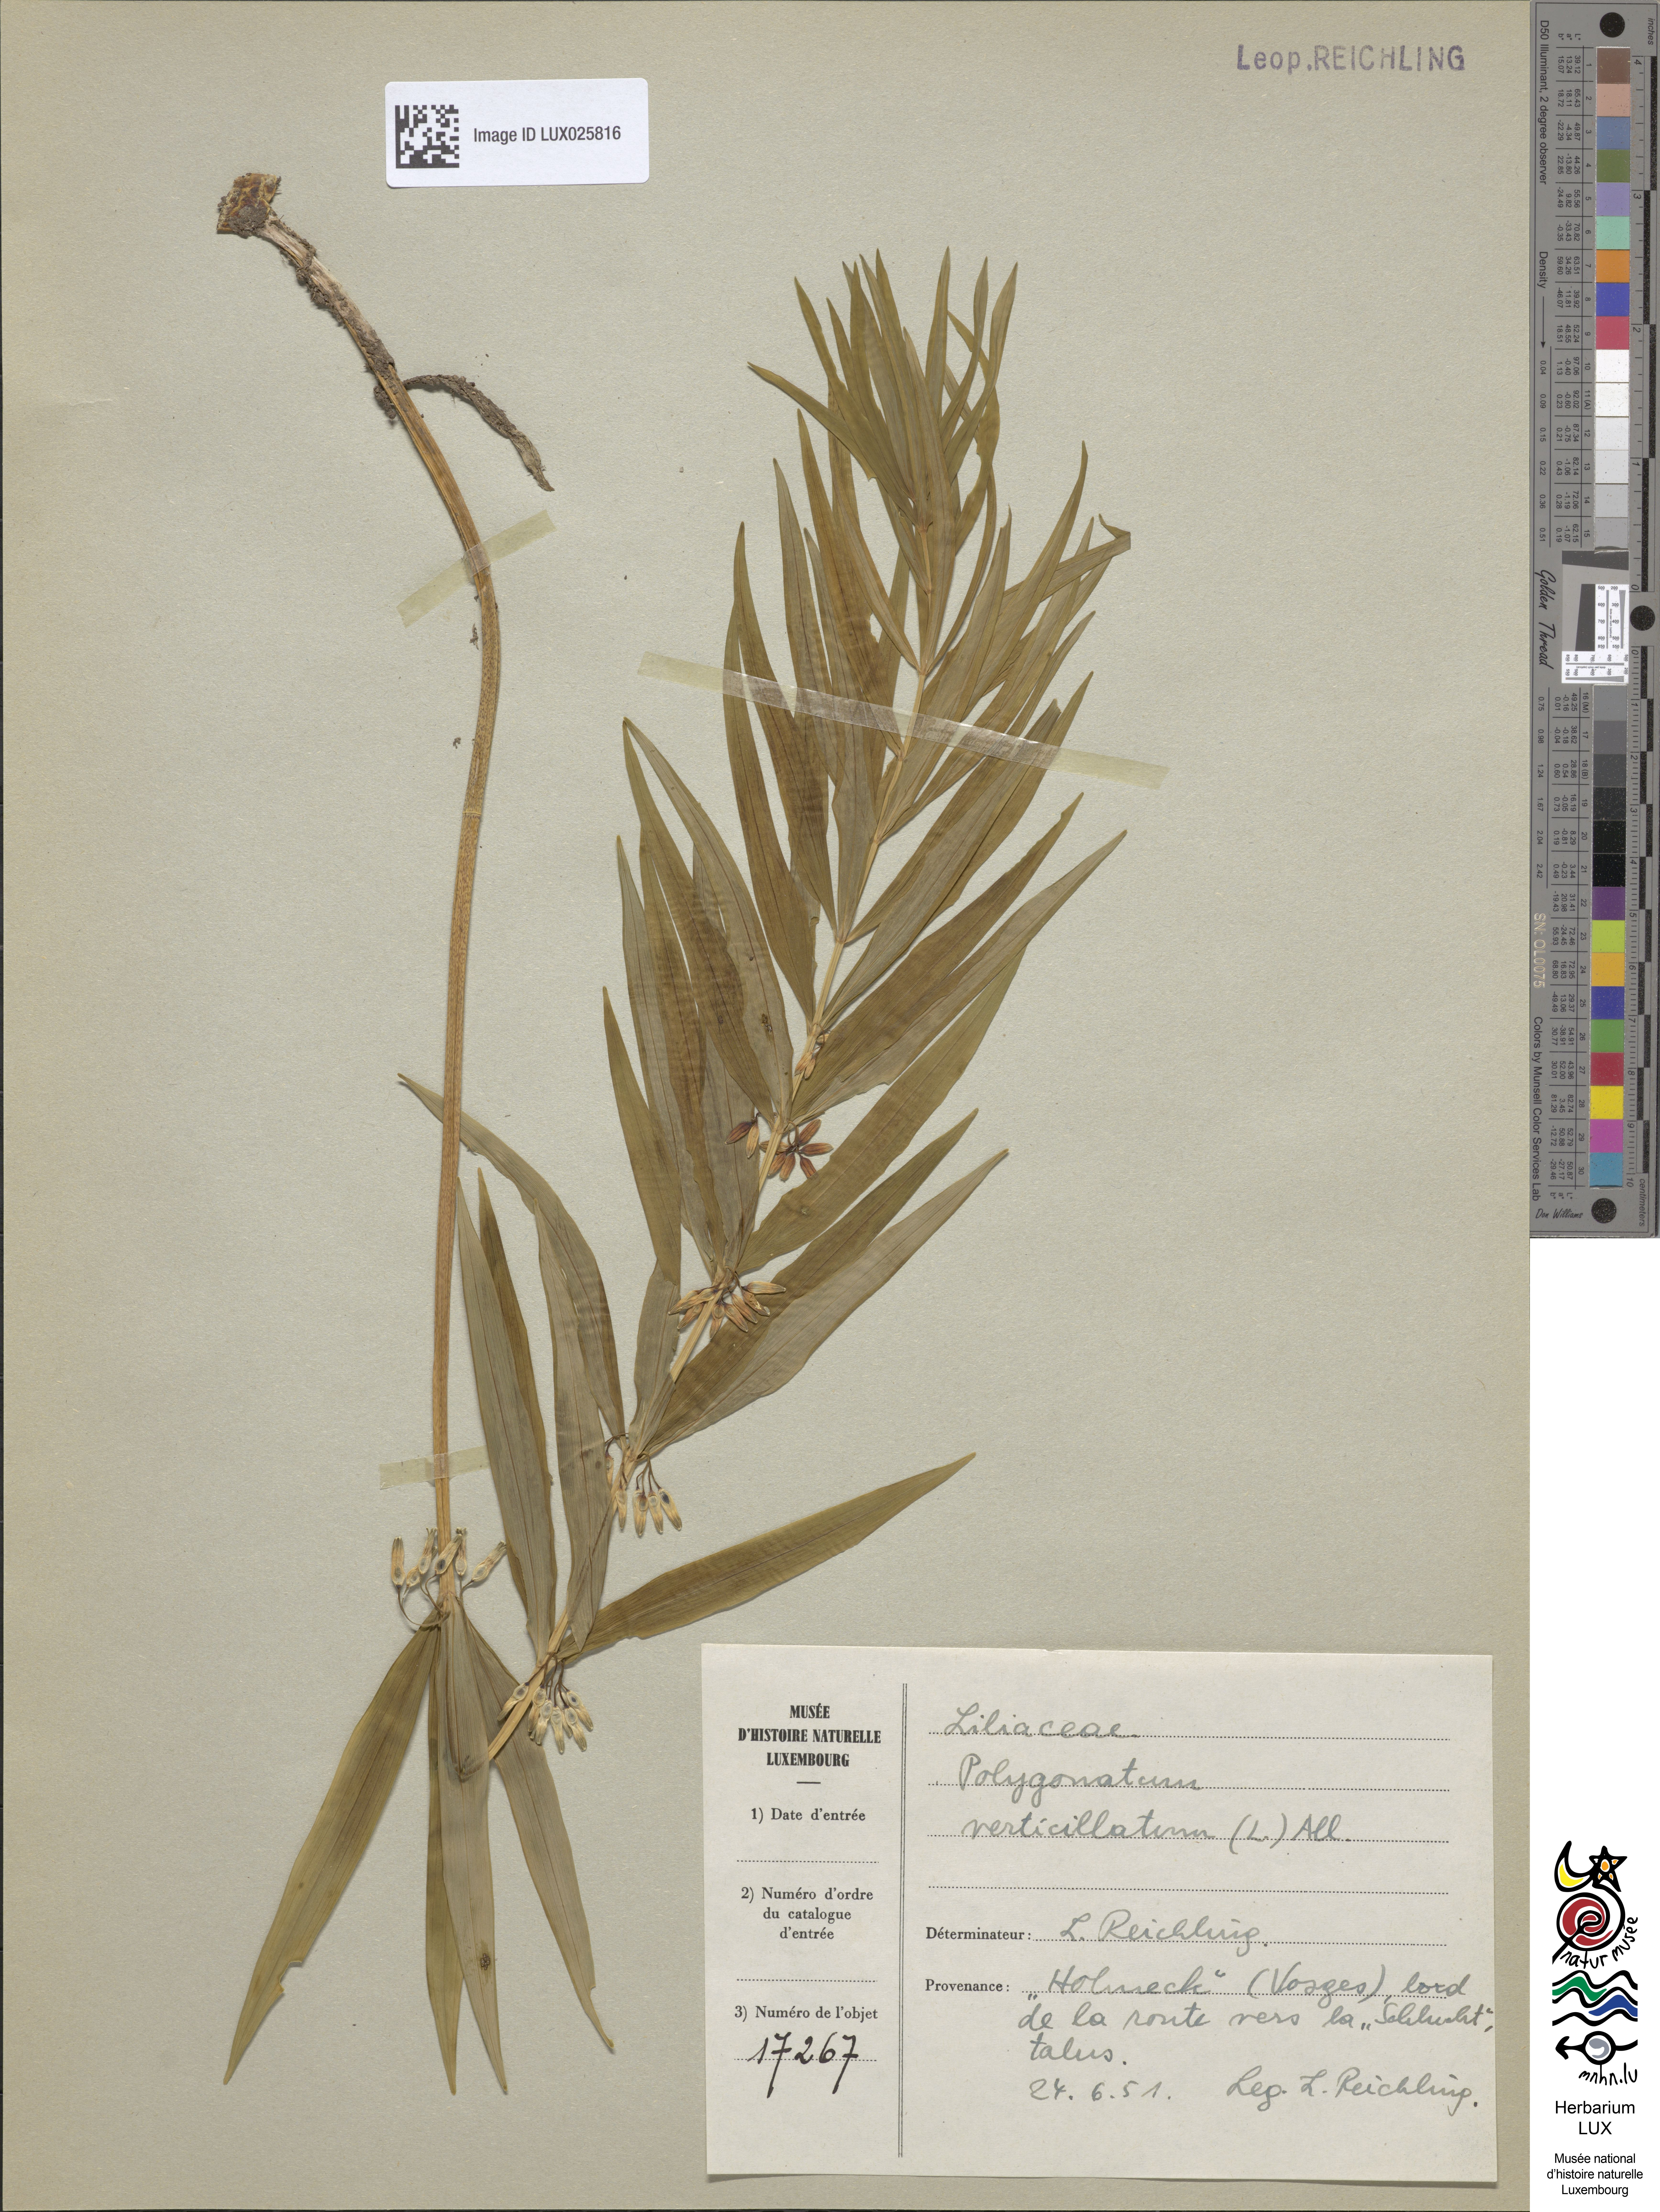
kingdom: Plantae
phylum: Tracheophyta
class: Liliopsida
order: Asparagales
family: Asparagaceae
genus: Polygonatum
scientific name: Polygonatum verticillatum
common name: Whorled solomon's-seal
